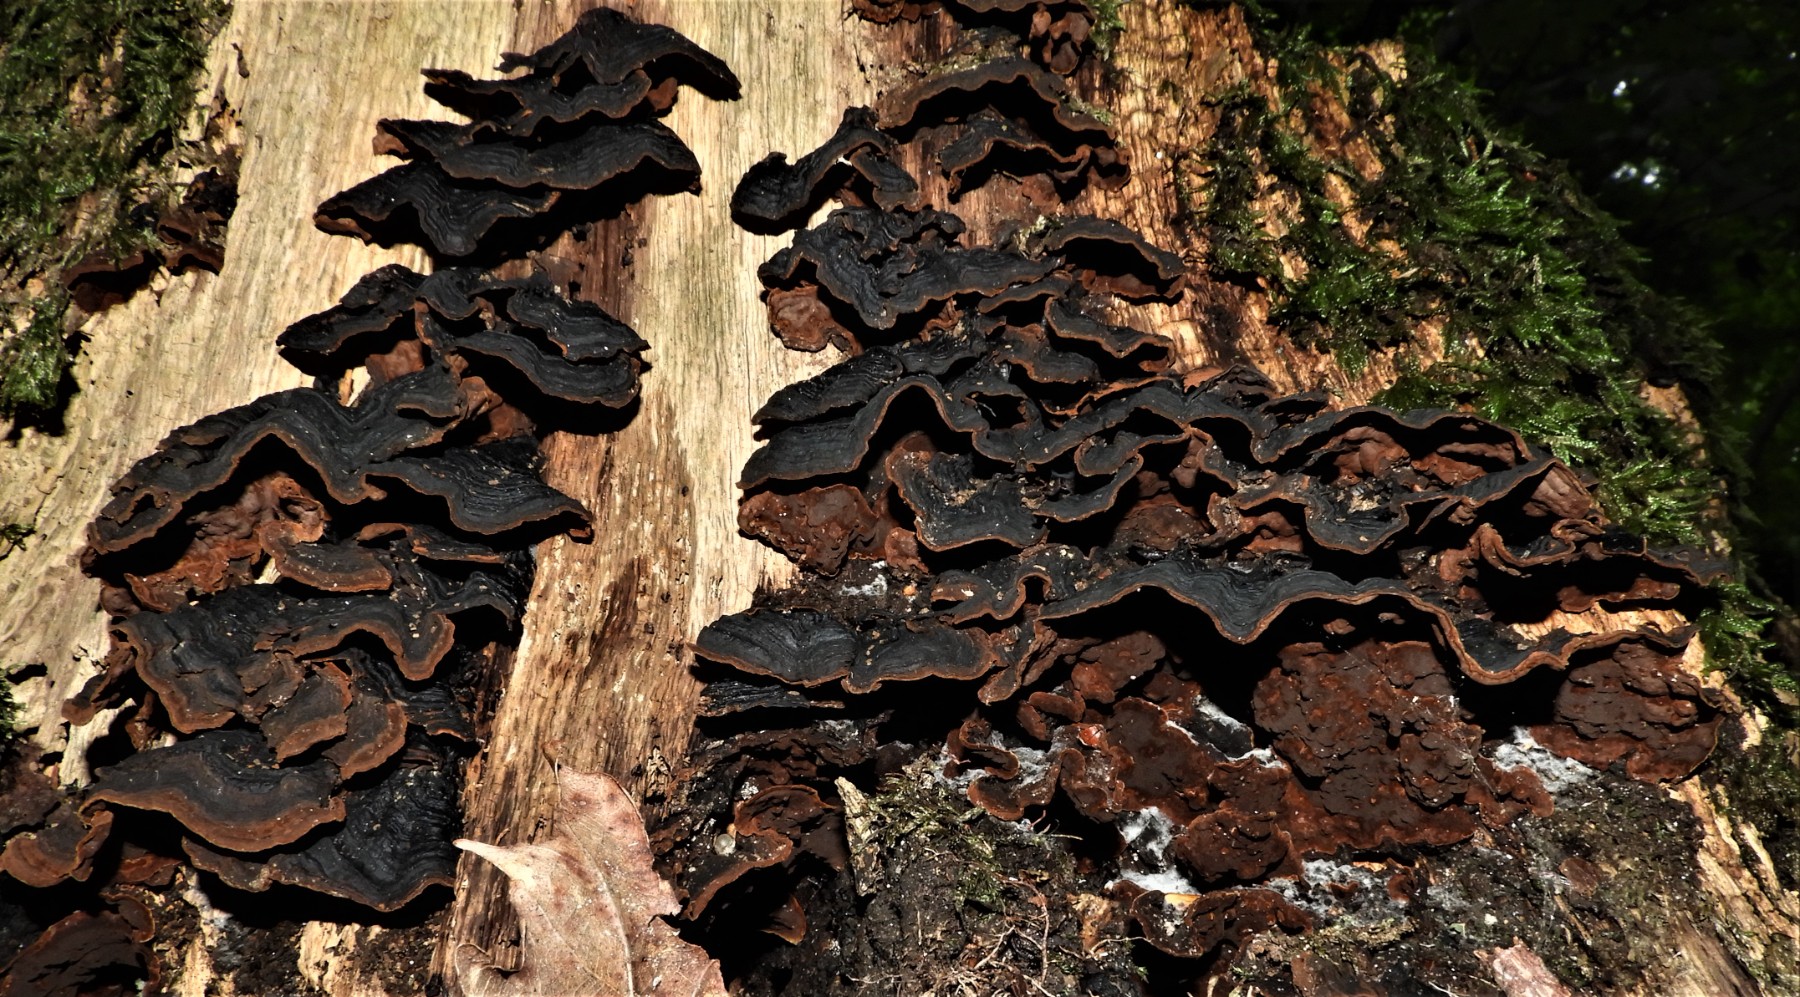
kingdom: Fungi
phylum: Basidiomycota
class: Agaricomycetes
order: Hymenochaetales
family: Hymenochaetaceae
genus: Hymenochaete
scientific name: Hymenochaete rubiginosa
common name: stiv ruslædersvamp
